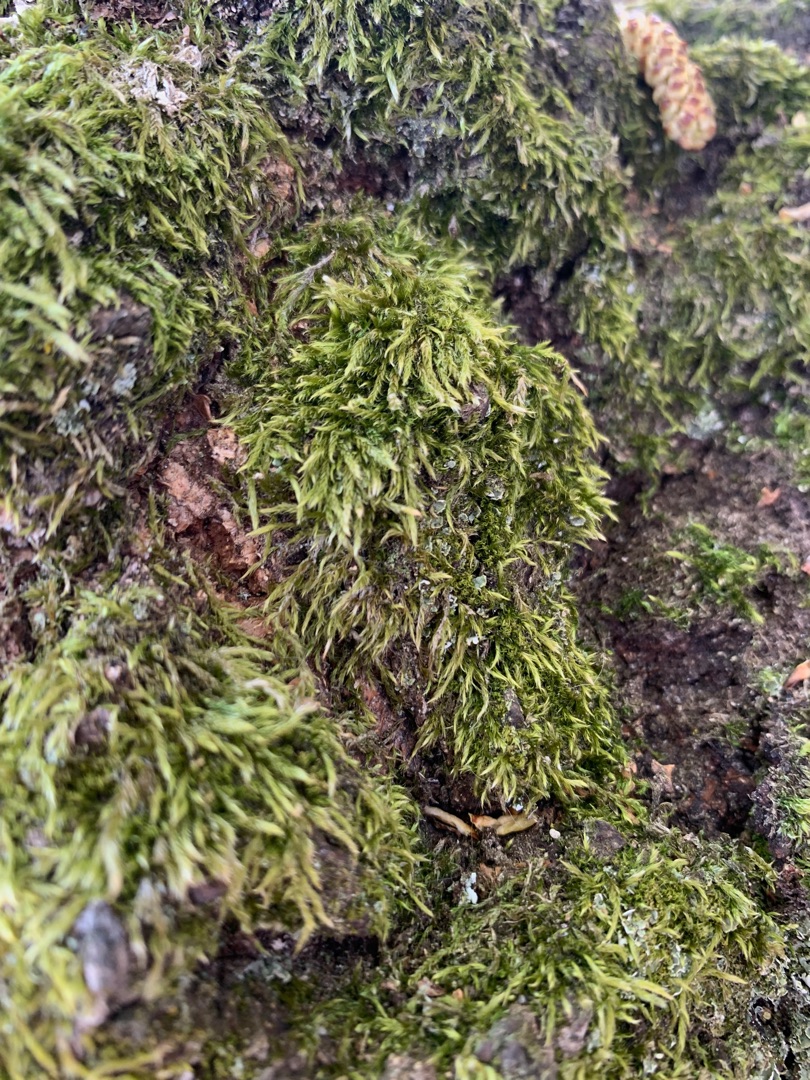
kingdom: Plantae
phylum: Bryophyta
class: Bryopsida
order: Hypnales
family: Hypnaceae
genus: Hypnum
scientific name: Hypnum
